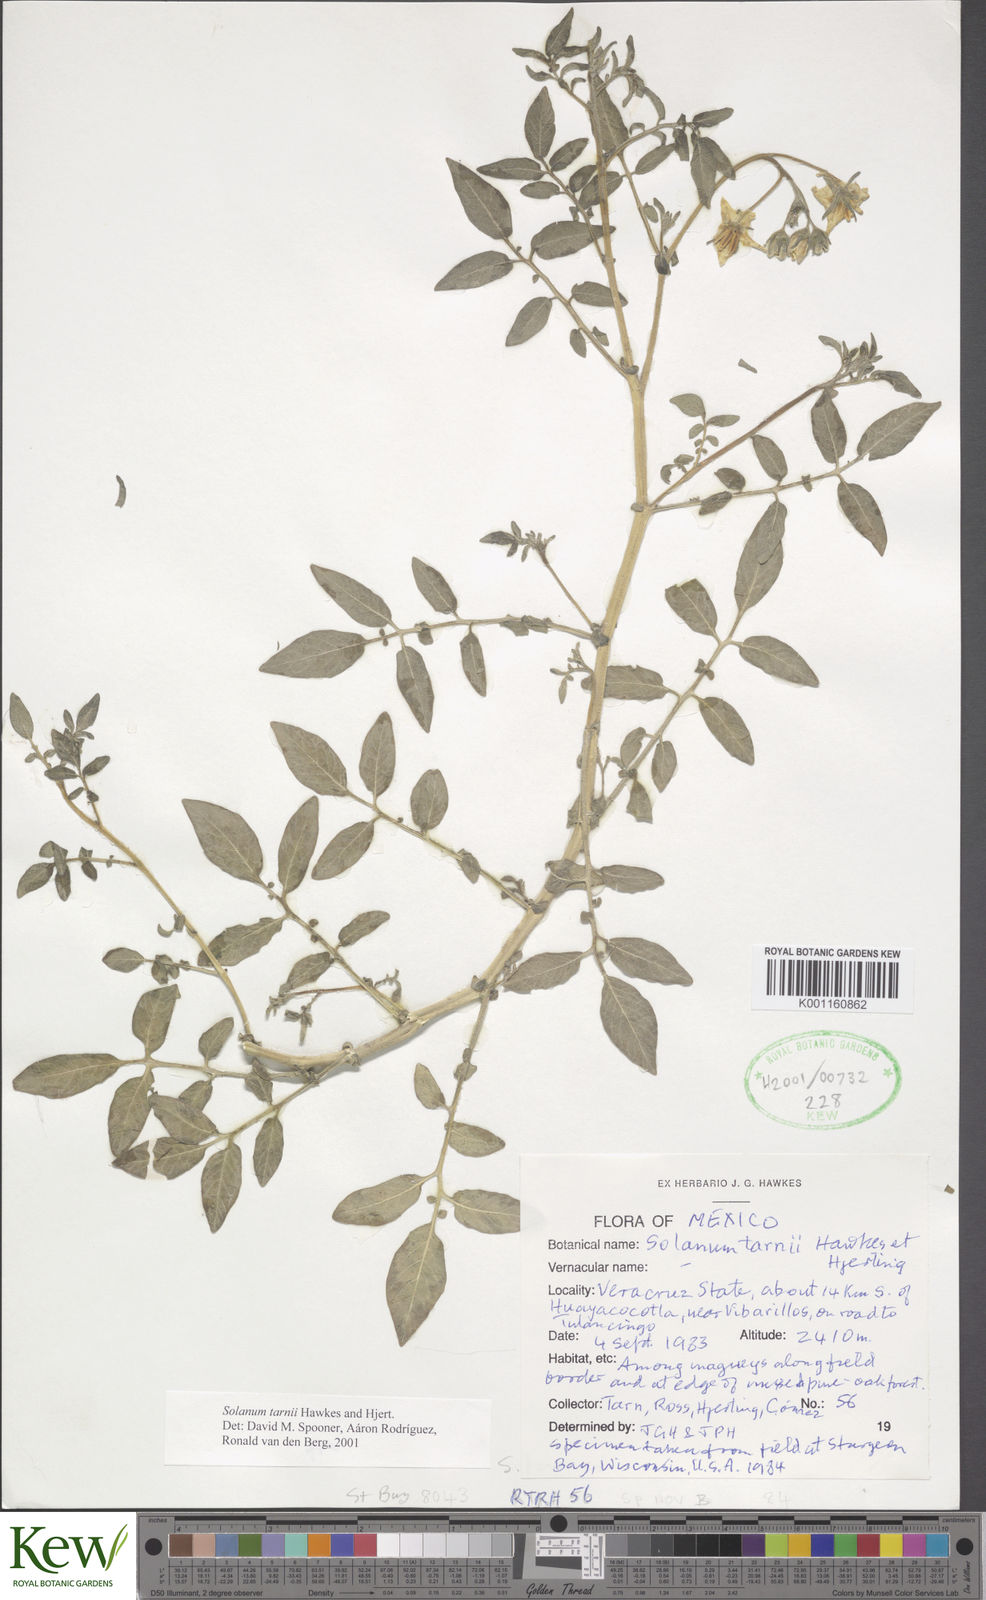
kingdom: Plantae
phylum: Tracheophyta
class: Magnoliopsida
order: Solanales
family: Solanaceae
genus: Solanum
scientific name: Solanum
